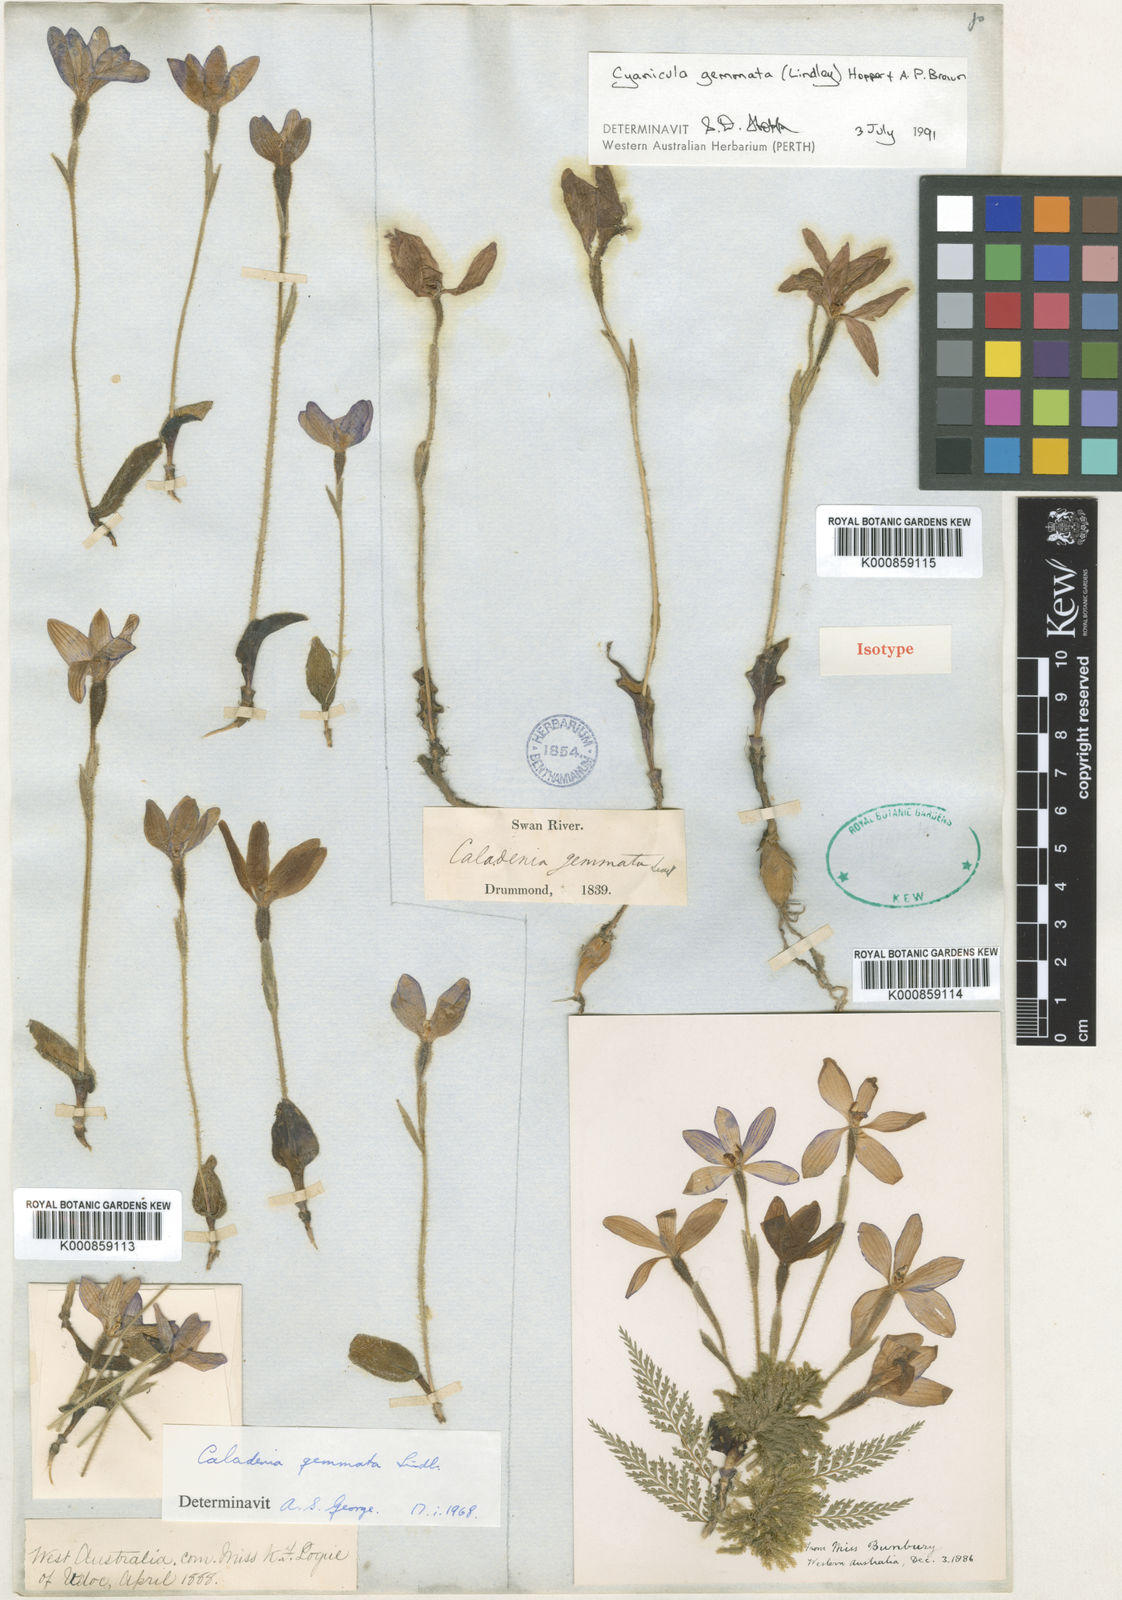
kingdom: Plantae
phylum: Tracheophyta
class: Liliopsida
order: Asparagales
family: Orchidaceae
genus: Caladenia
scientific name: Caladenia gemmata
